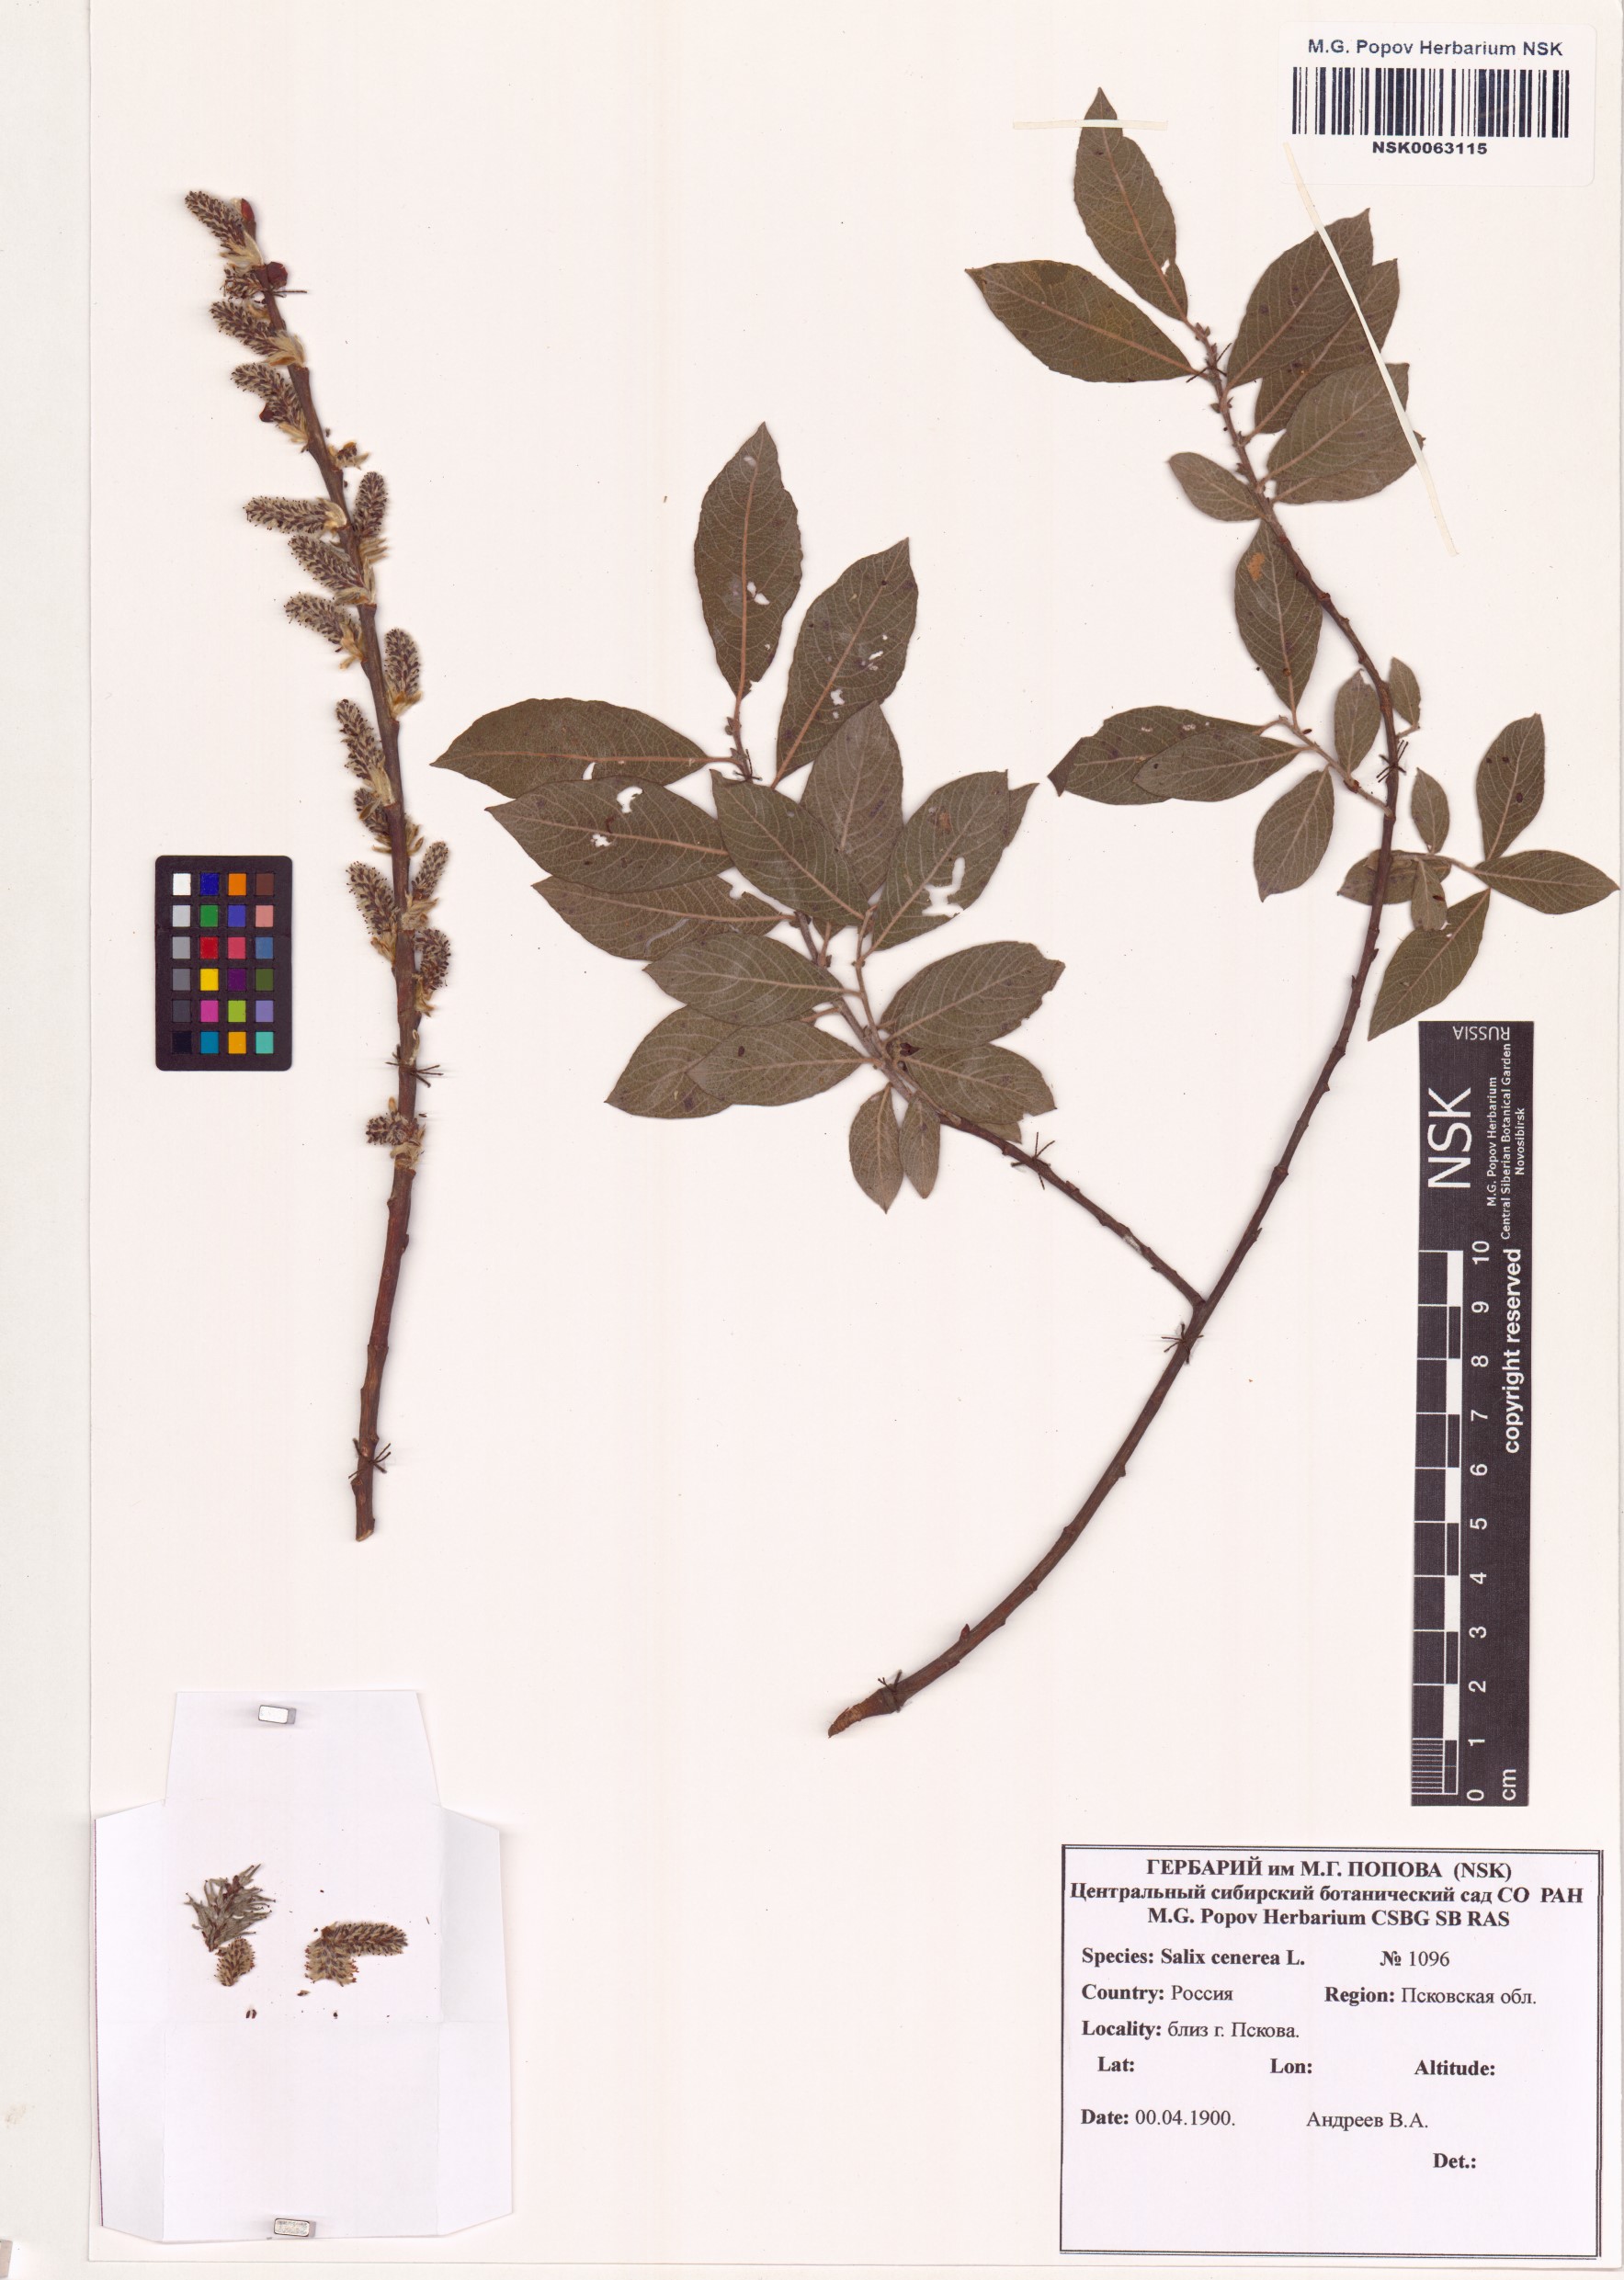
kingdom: Plantae
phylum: Tracheophyta
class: Magnoliopsida
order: Malpighiales
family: Salicaceae
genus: Salix
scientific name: Salix cinerea
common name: Common sallow
